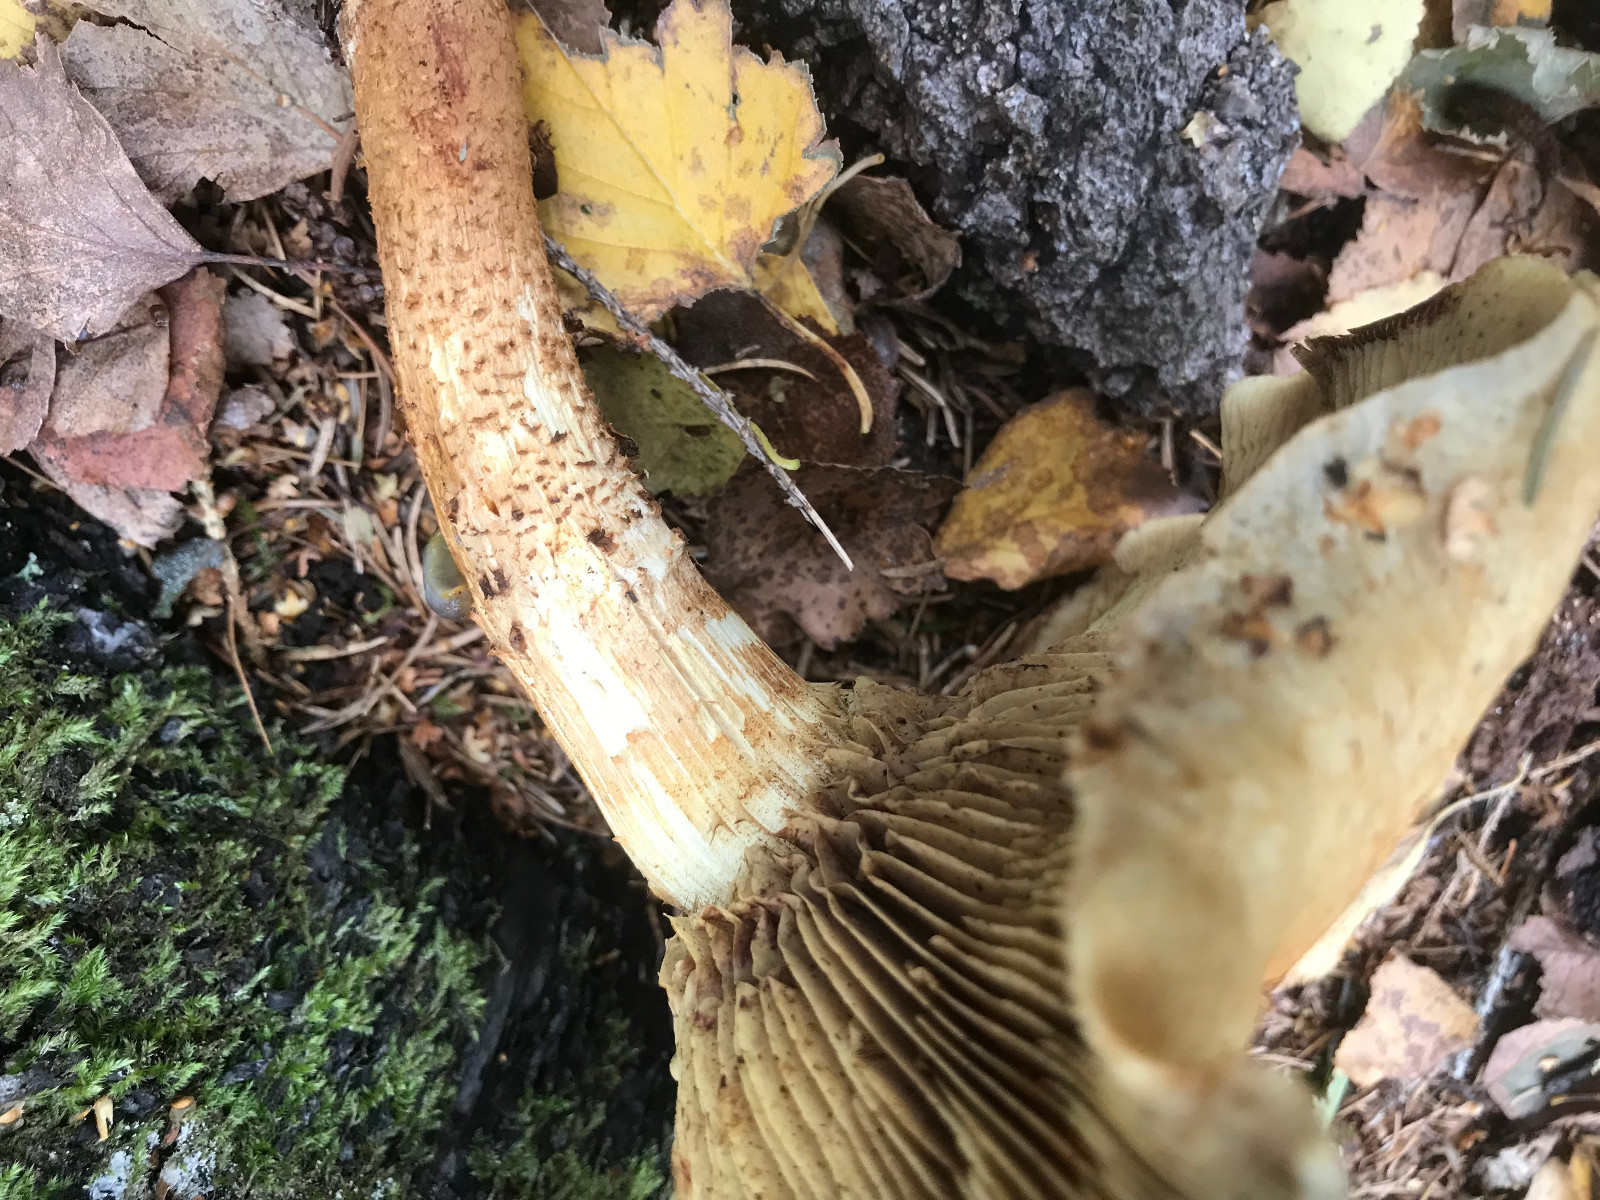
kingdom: Fungi
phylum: Basidiomycota
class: Agaricomycetes
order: Agaricales
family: Strophariaceae
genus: Pholiota
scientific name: Pholiota squarrosa
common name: krumskællet skælhat
